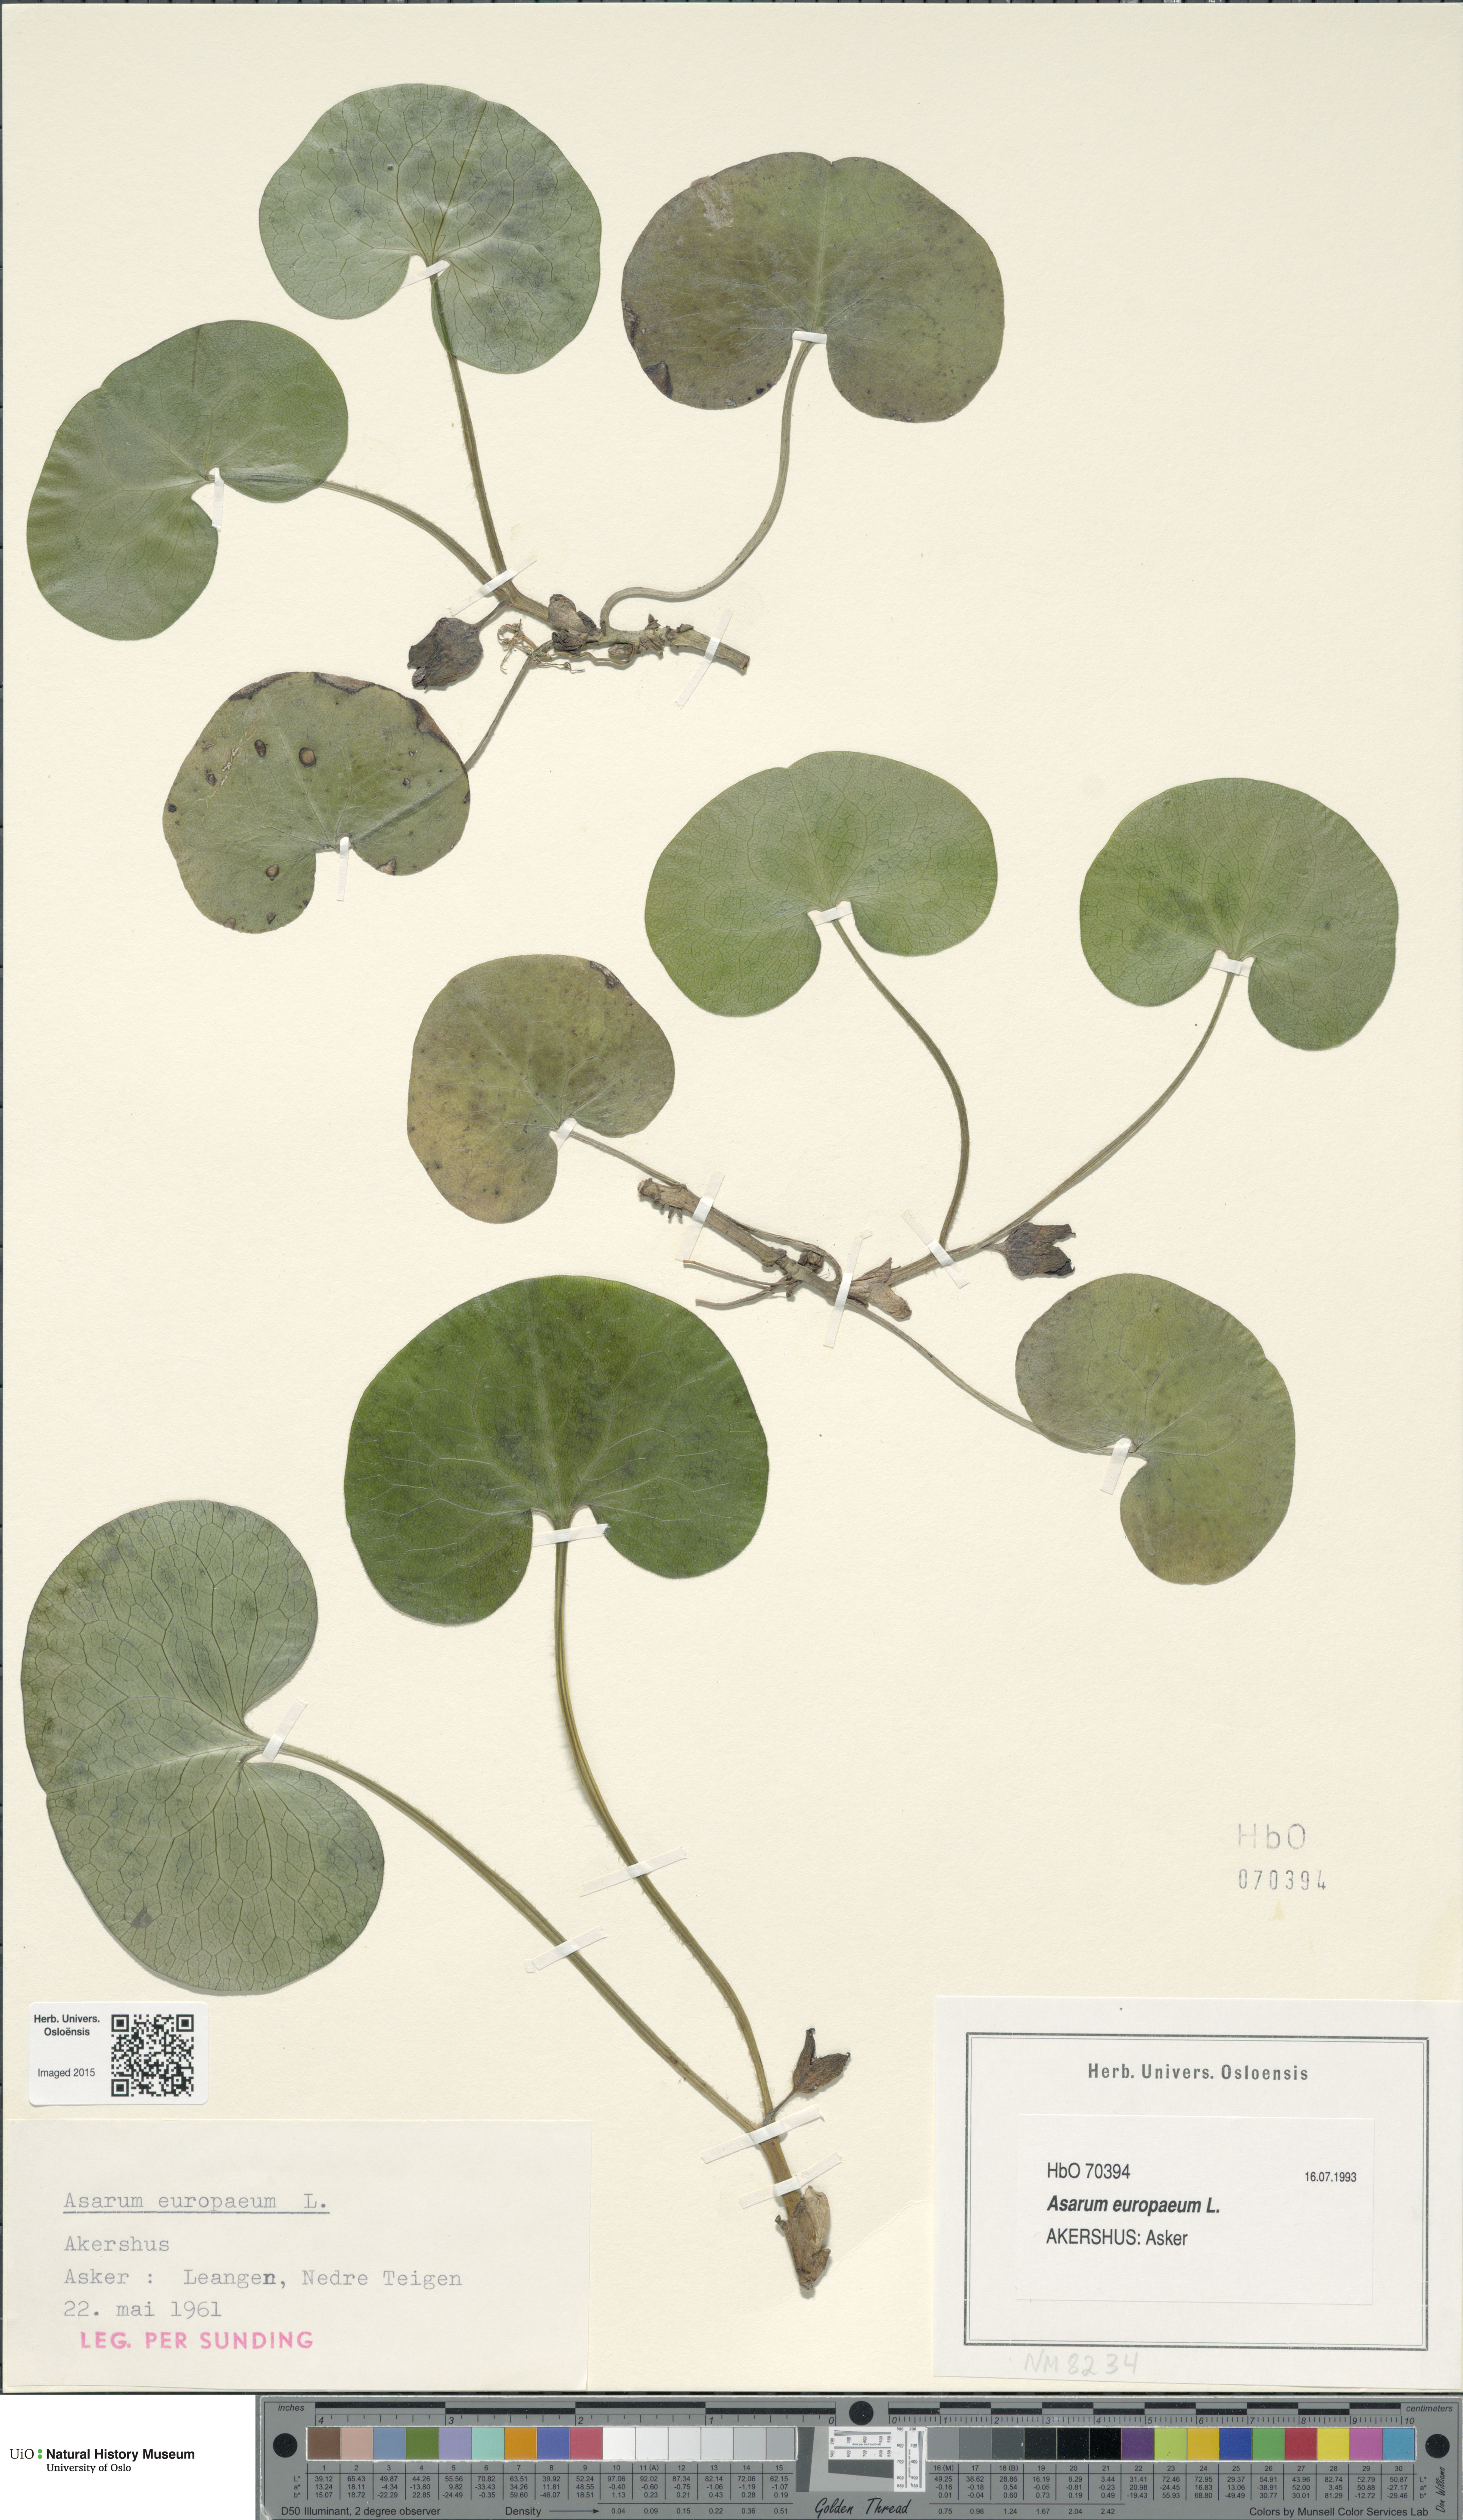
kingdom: Plantae
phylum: Tracheophyta
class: Magnoliopsida
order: Piperales
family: Aristolochiaceae
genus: Asarum
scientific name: Asarum europaeum
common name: Asarabacca
